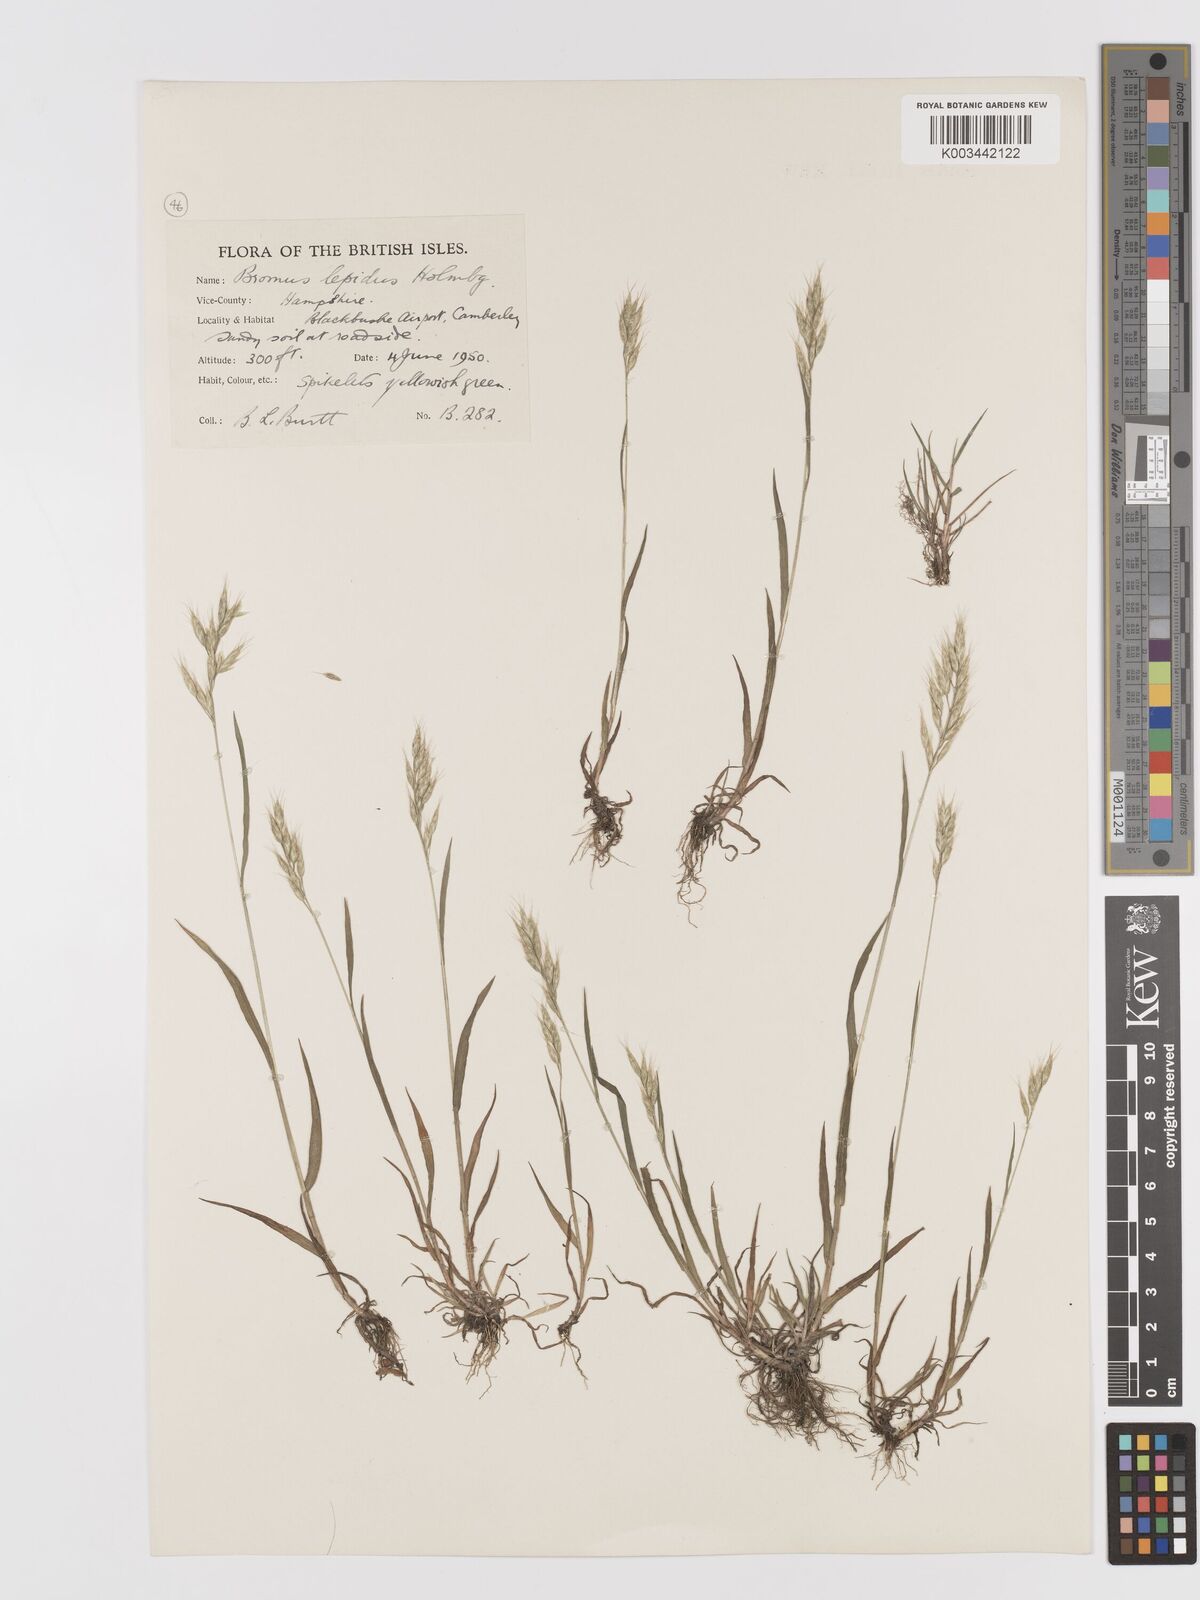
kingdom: Plantae
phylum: Tracheophyta
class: Liliopsida
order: Poales
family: Poaceae
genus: Bromus
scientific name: Bromus lepidus
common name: Slender soft-brome
